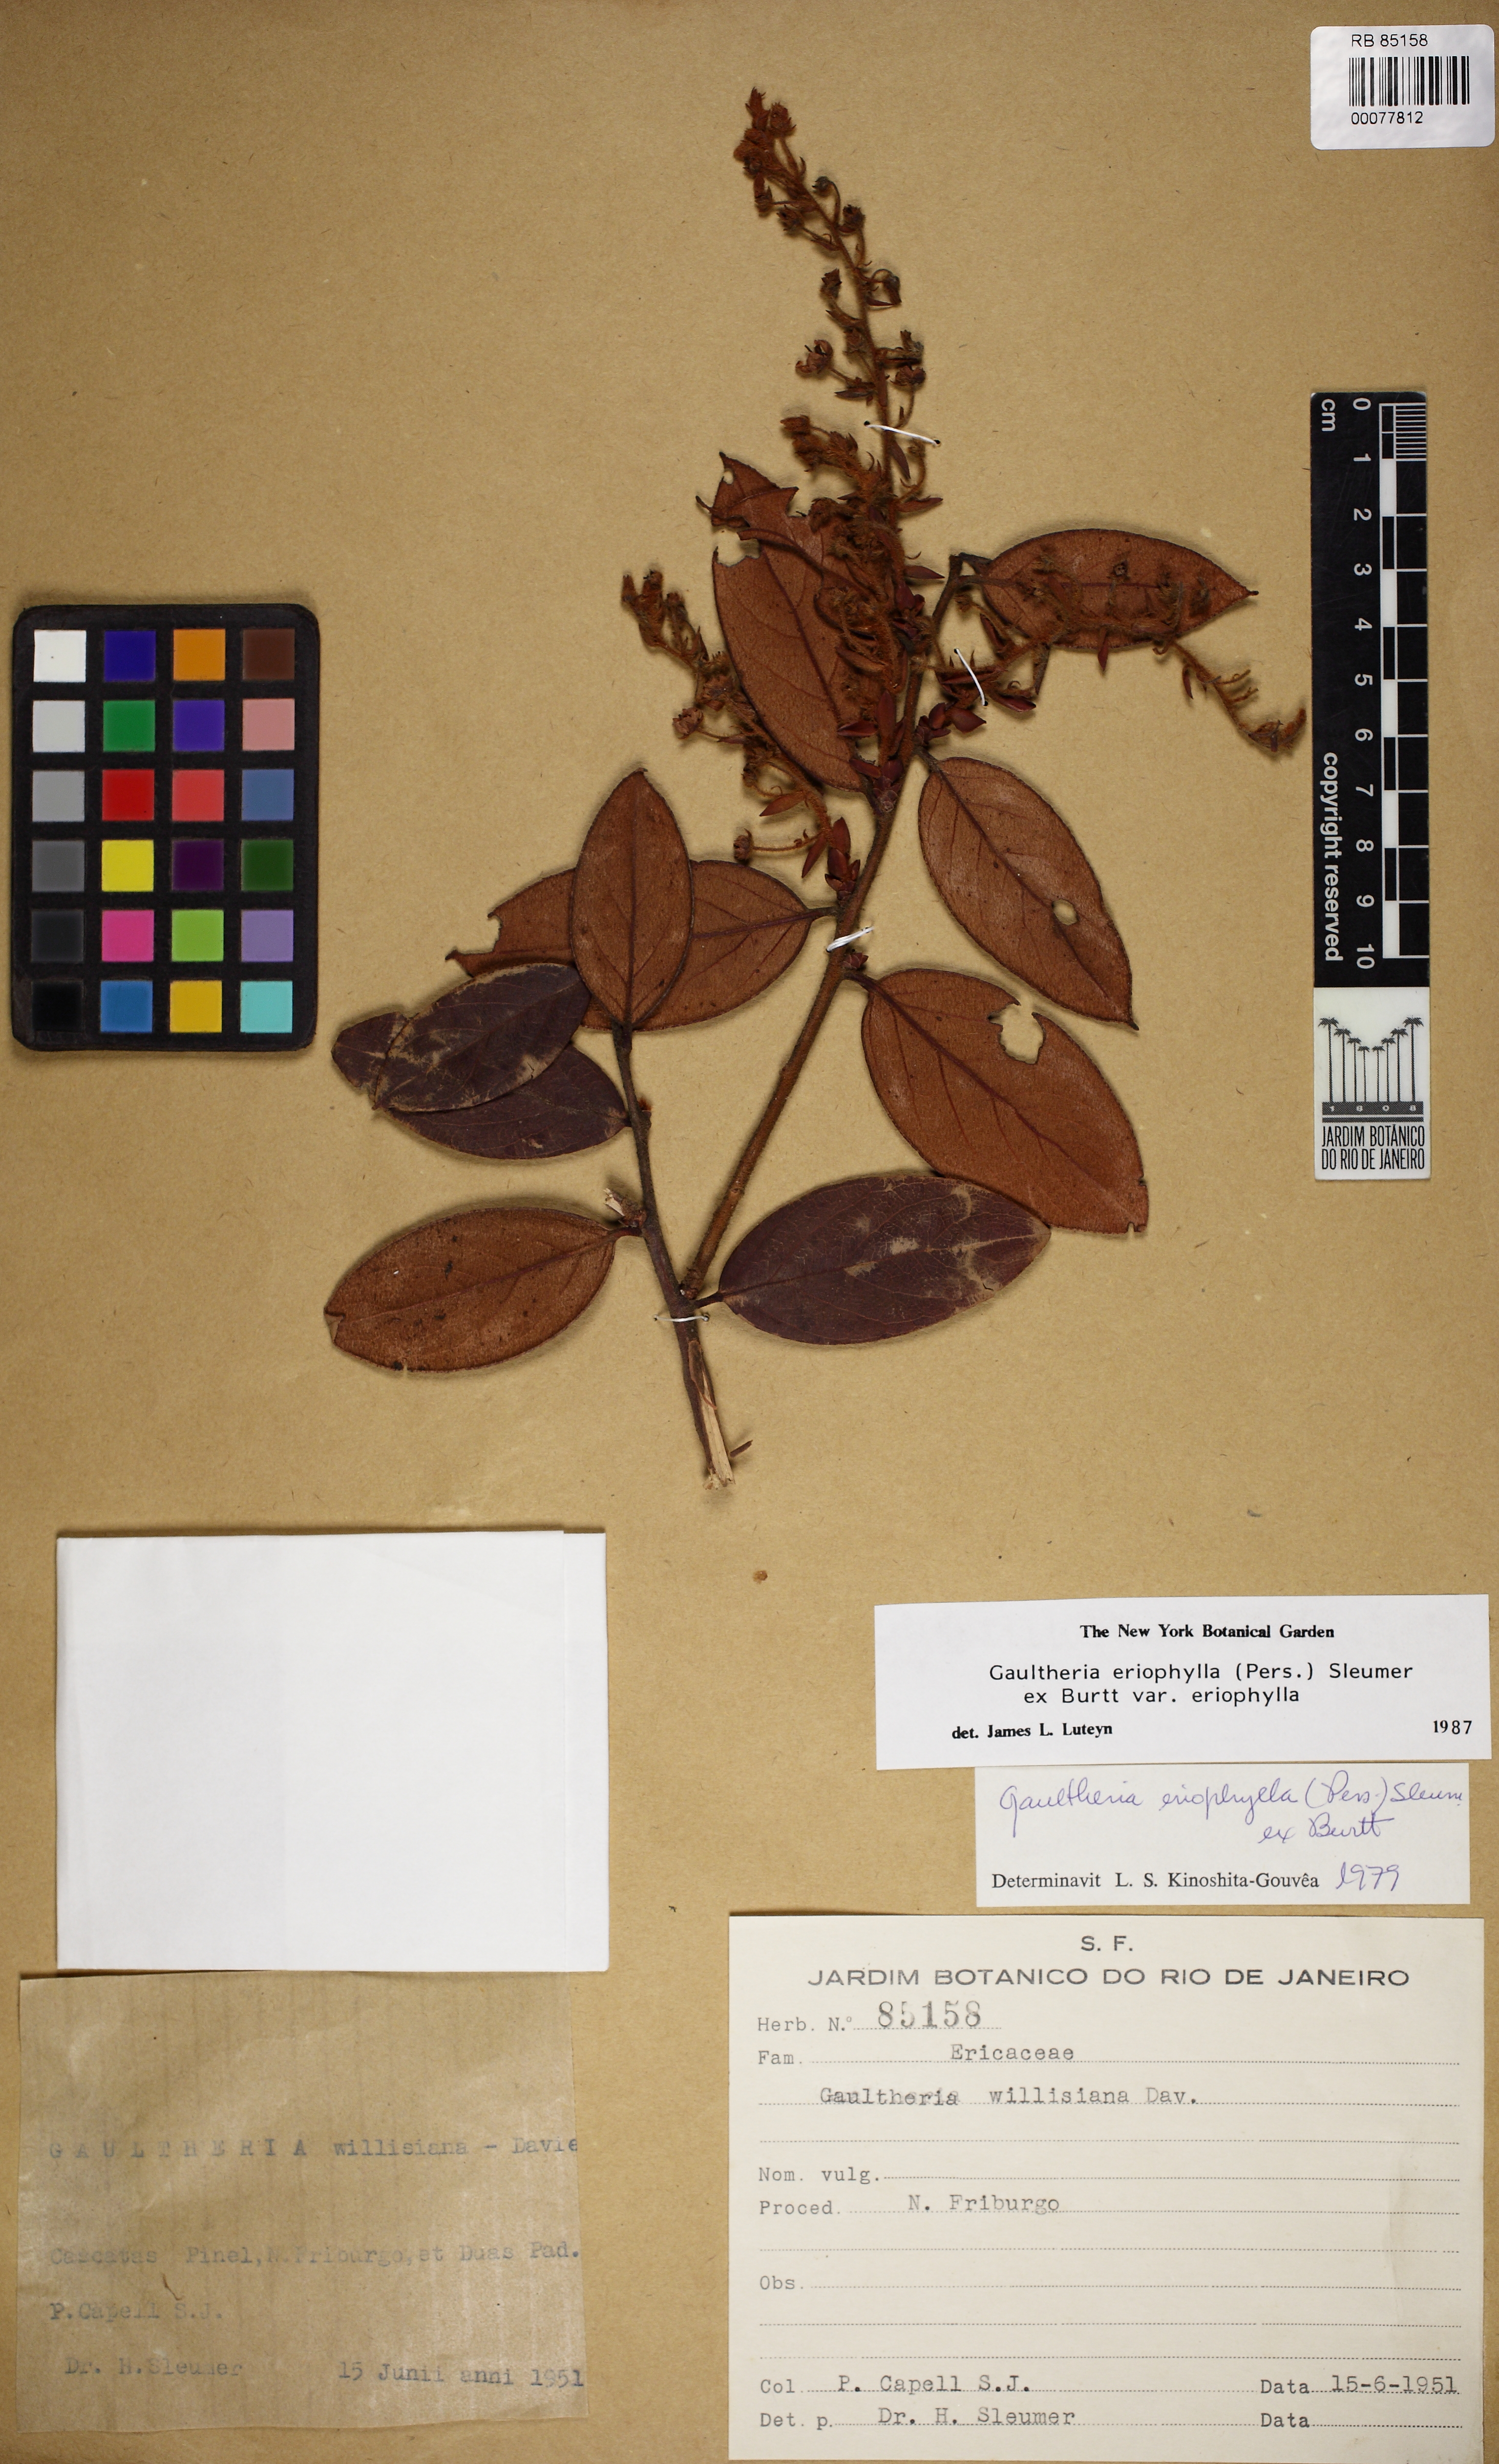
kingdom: Plantae
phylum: Tracheophyta
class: Magnoliopsida
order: Ericales
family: Ericaceae
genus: Gaultheria
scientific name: Gaultheria eriophylla
